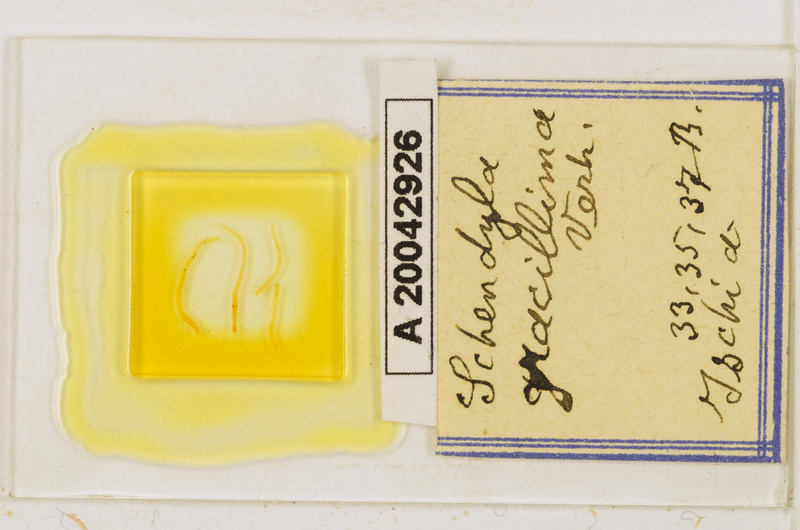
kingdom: Animalia
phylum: Arthropoda
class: Chilopoda
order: Geophilomorpha
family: Schendylidae
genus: Schendyla
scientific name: Schendyla gracillima
